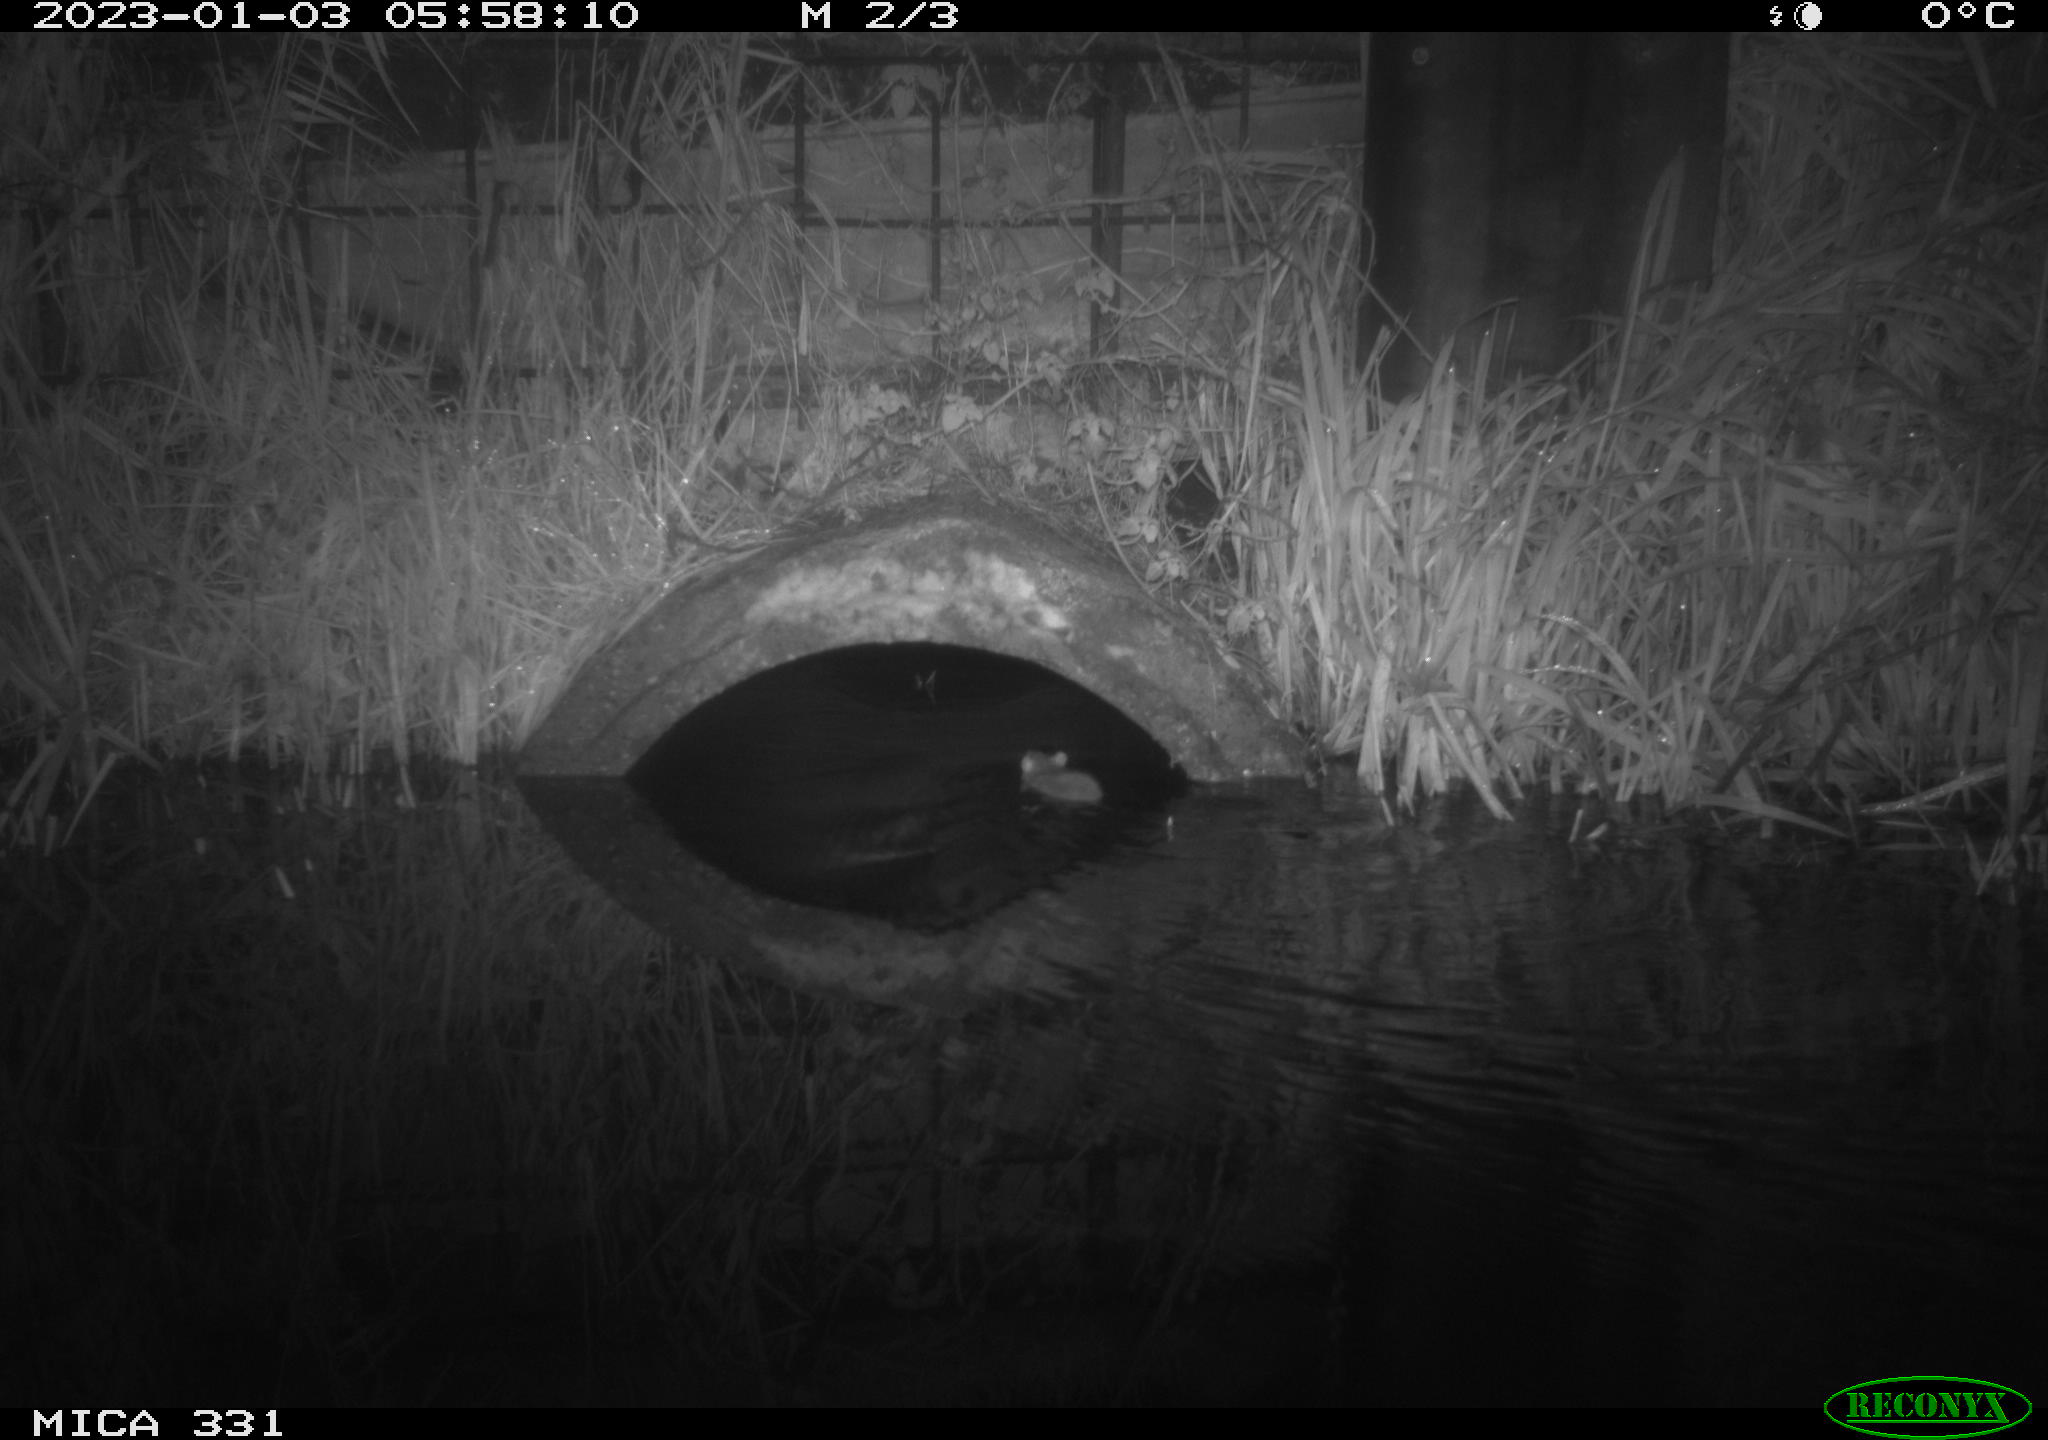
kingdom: Animalia
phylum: Chordata
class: Mammalia
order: Rodentia
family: Muridae
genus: Rattus
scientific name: Rattus norvegicus
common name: Brown rat
